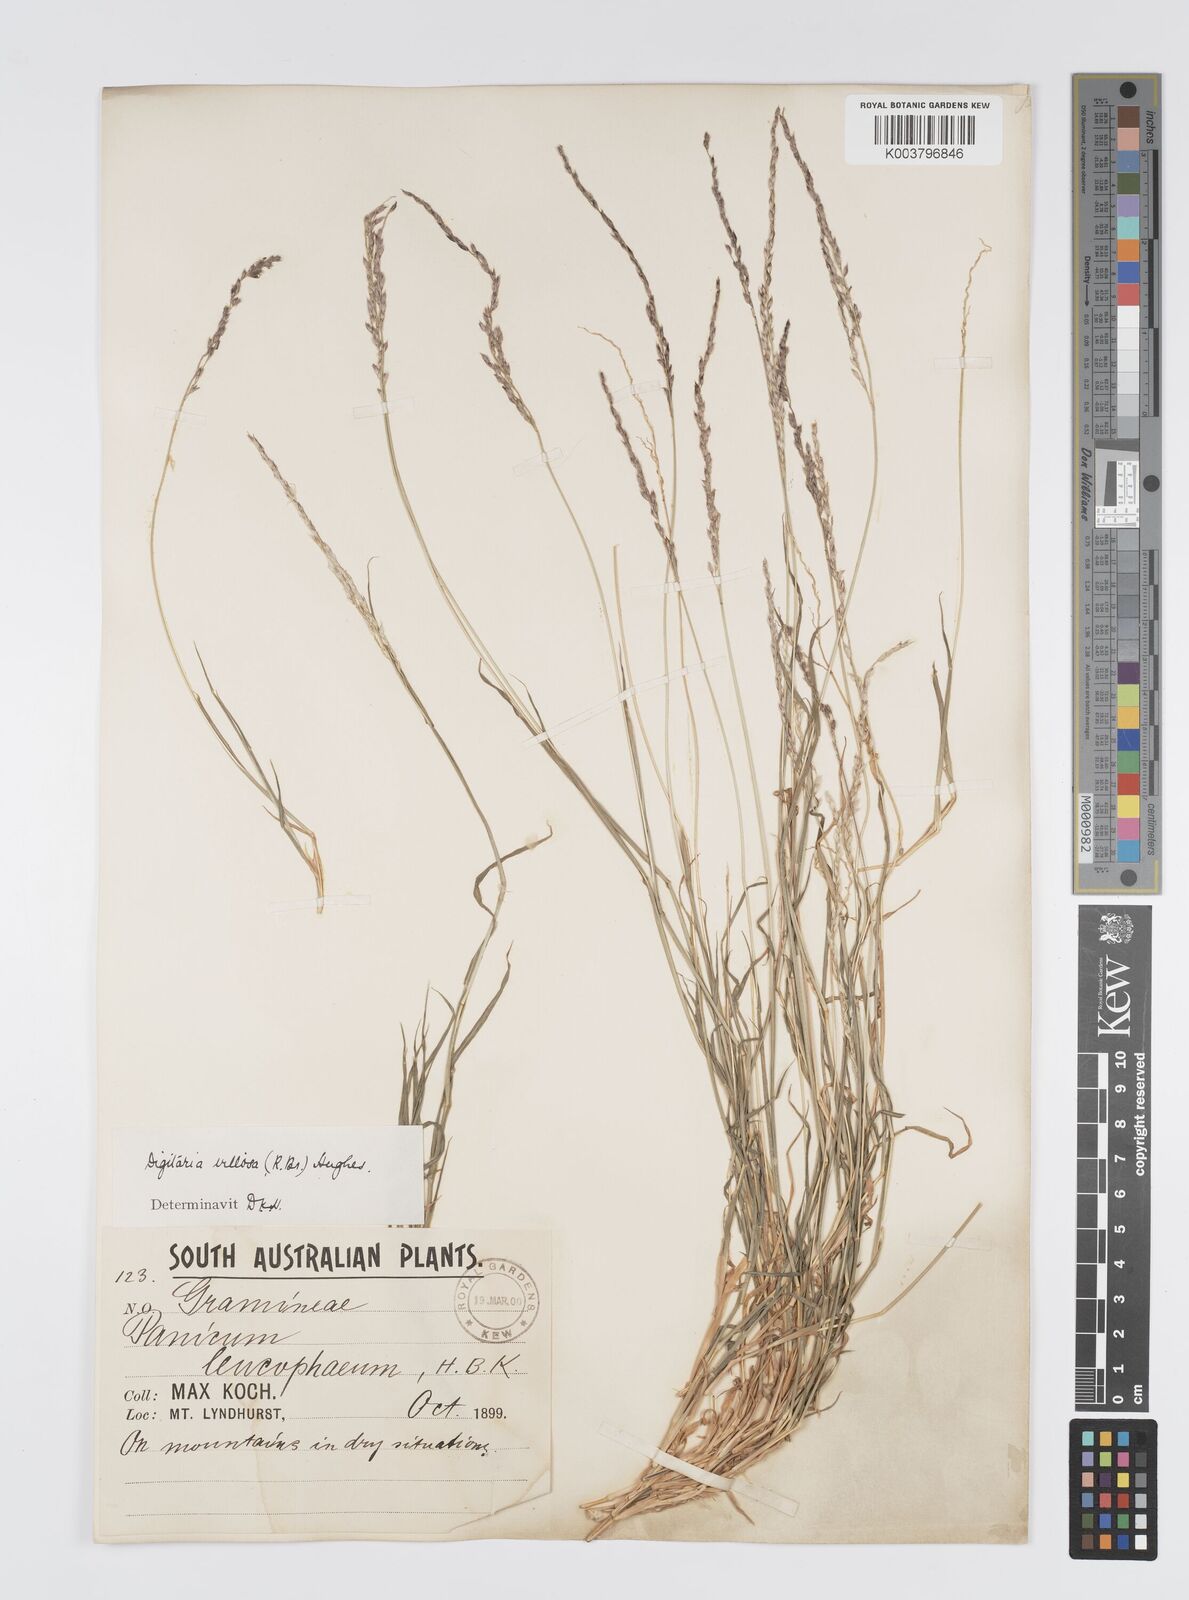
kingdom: Plantae
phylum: Tracheophyta
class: Liliopsida
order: Poales
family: Poaceae
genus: Digitaria
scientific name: Digitaria brownii
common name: Cotton grass
